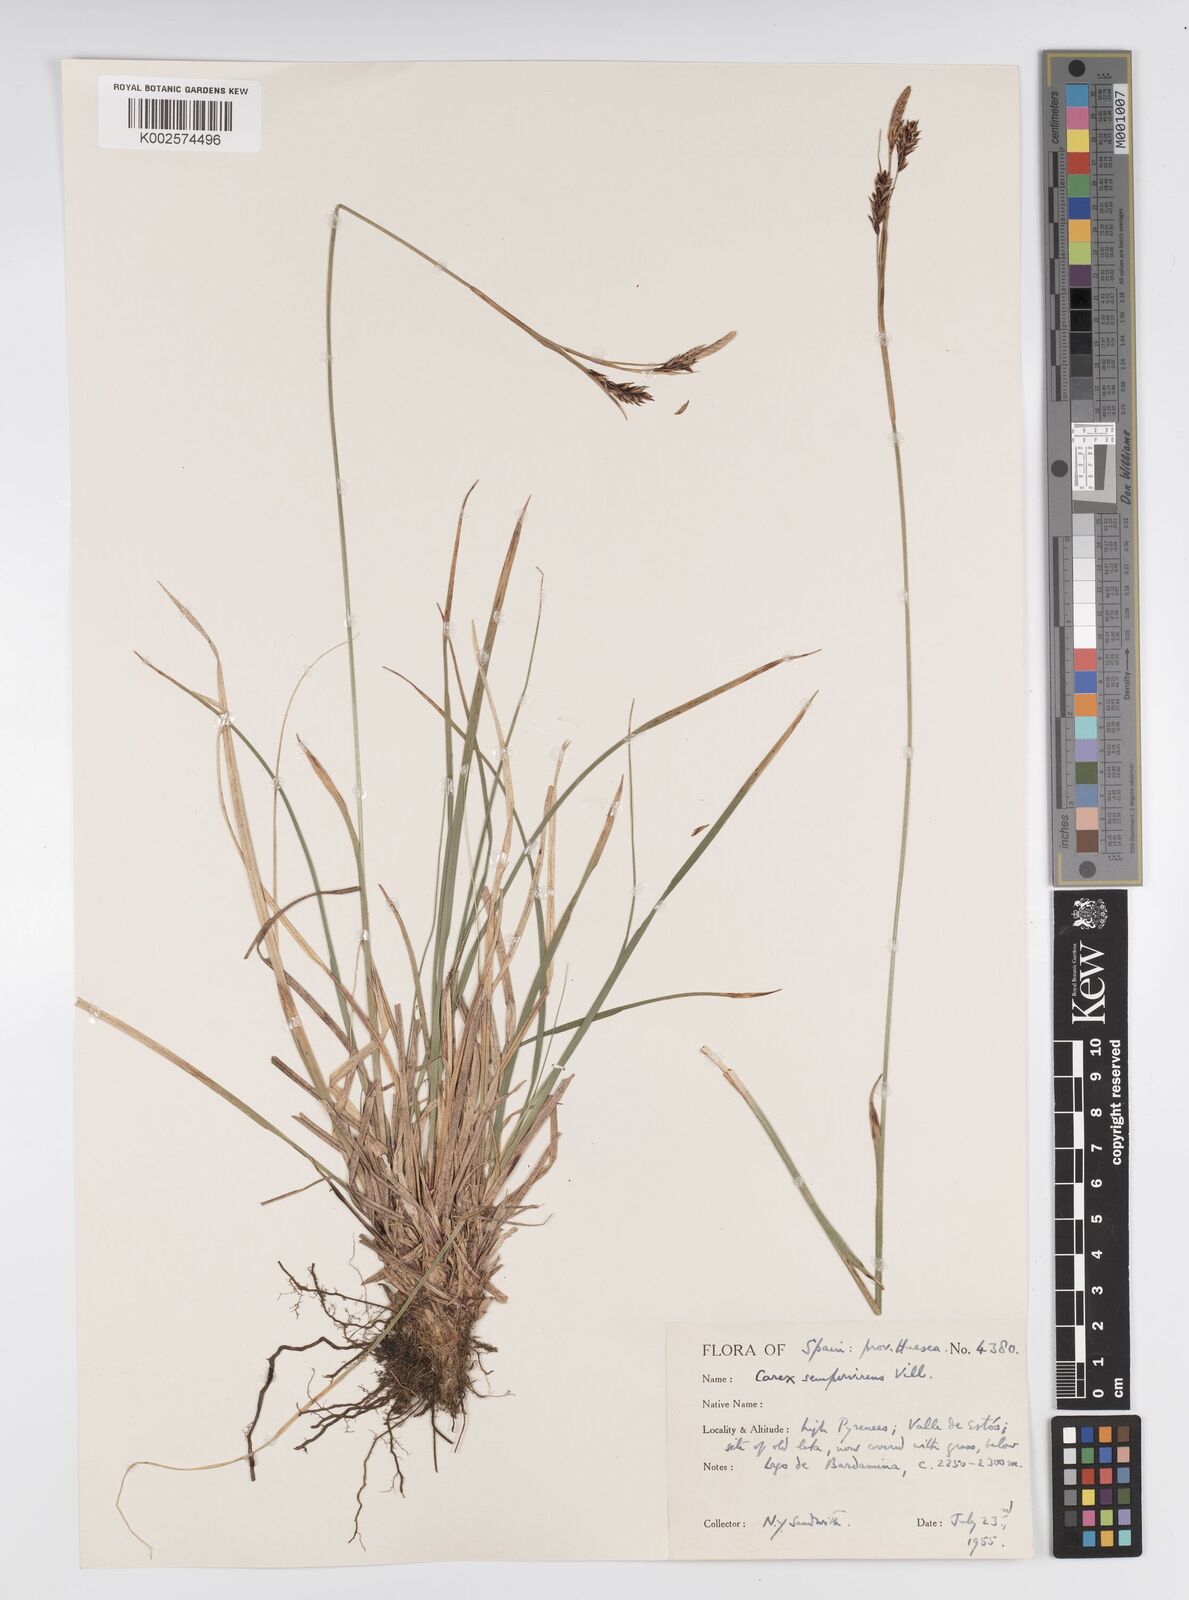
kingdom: Plantae
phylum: Tracheophyta
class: Liliopsida
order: Poales
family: Cyperaceae
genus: Carex
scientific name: Carex sempervirens
